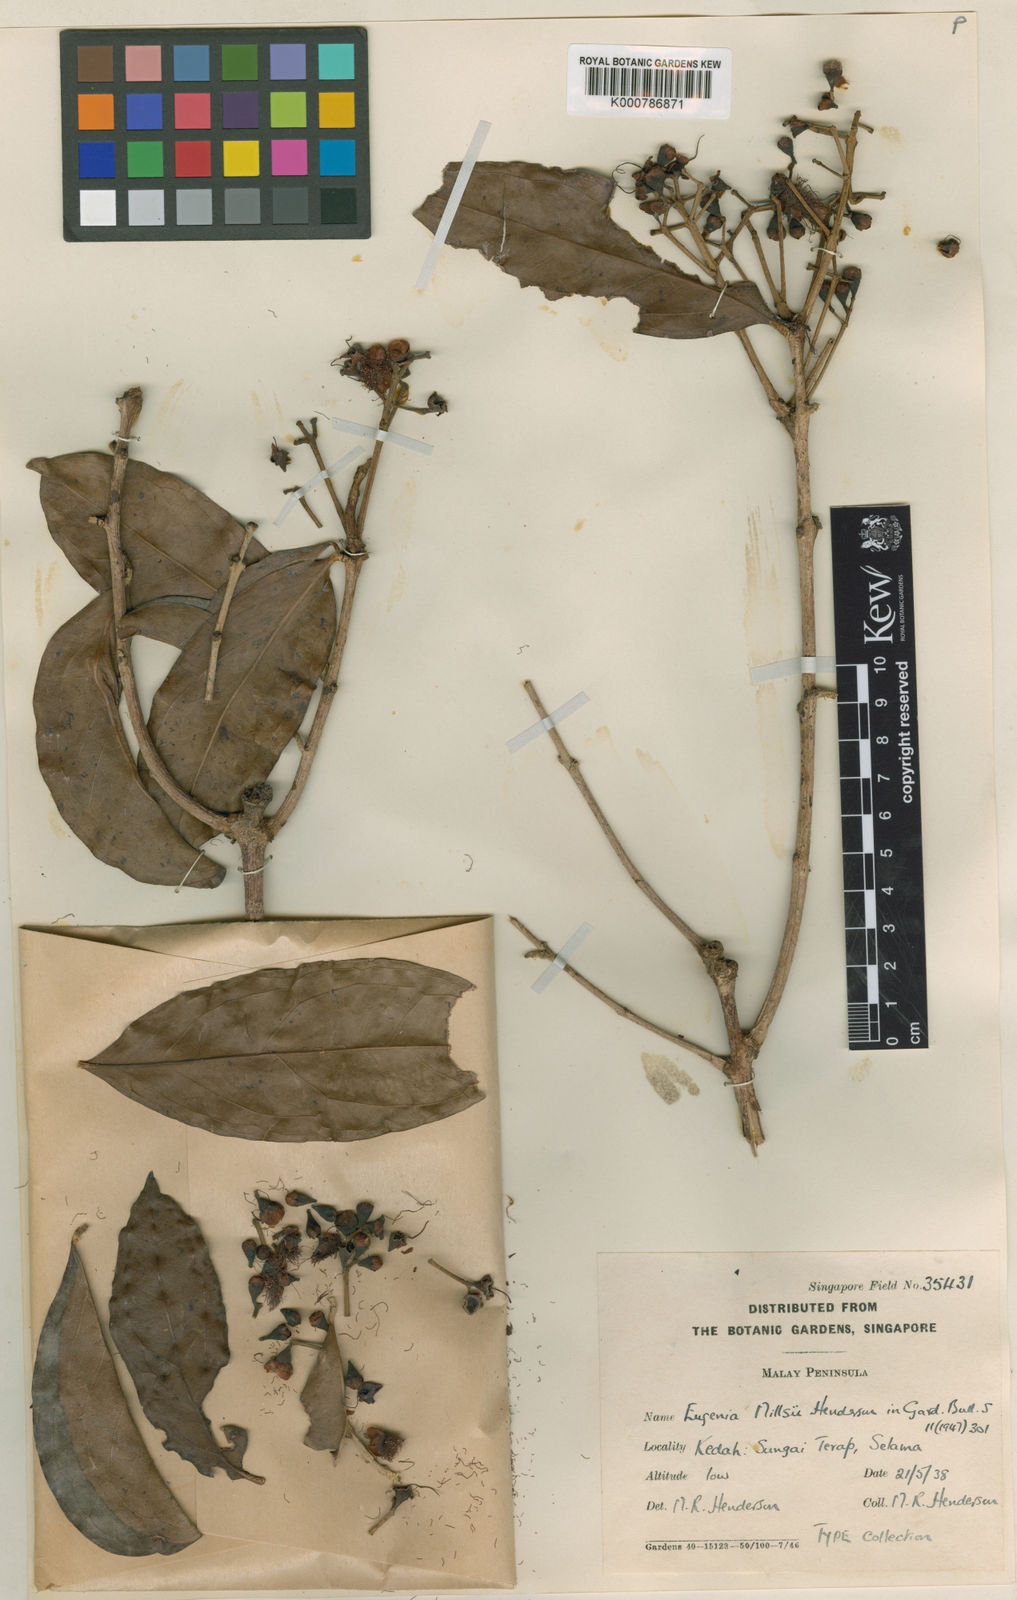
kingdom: Plantae
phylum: Tracheophyta
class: Magnoliopsida
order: Myrtales
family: Myrtaceae
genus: Syzygium
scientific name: Syzygium millsii
